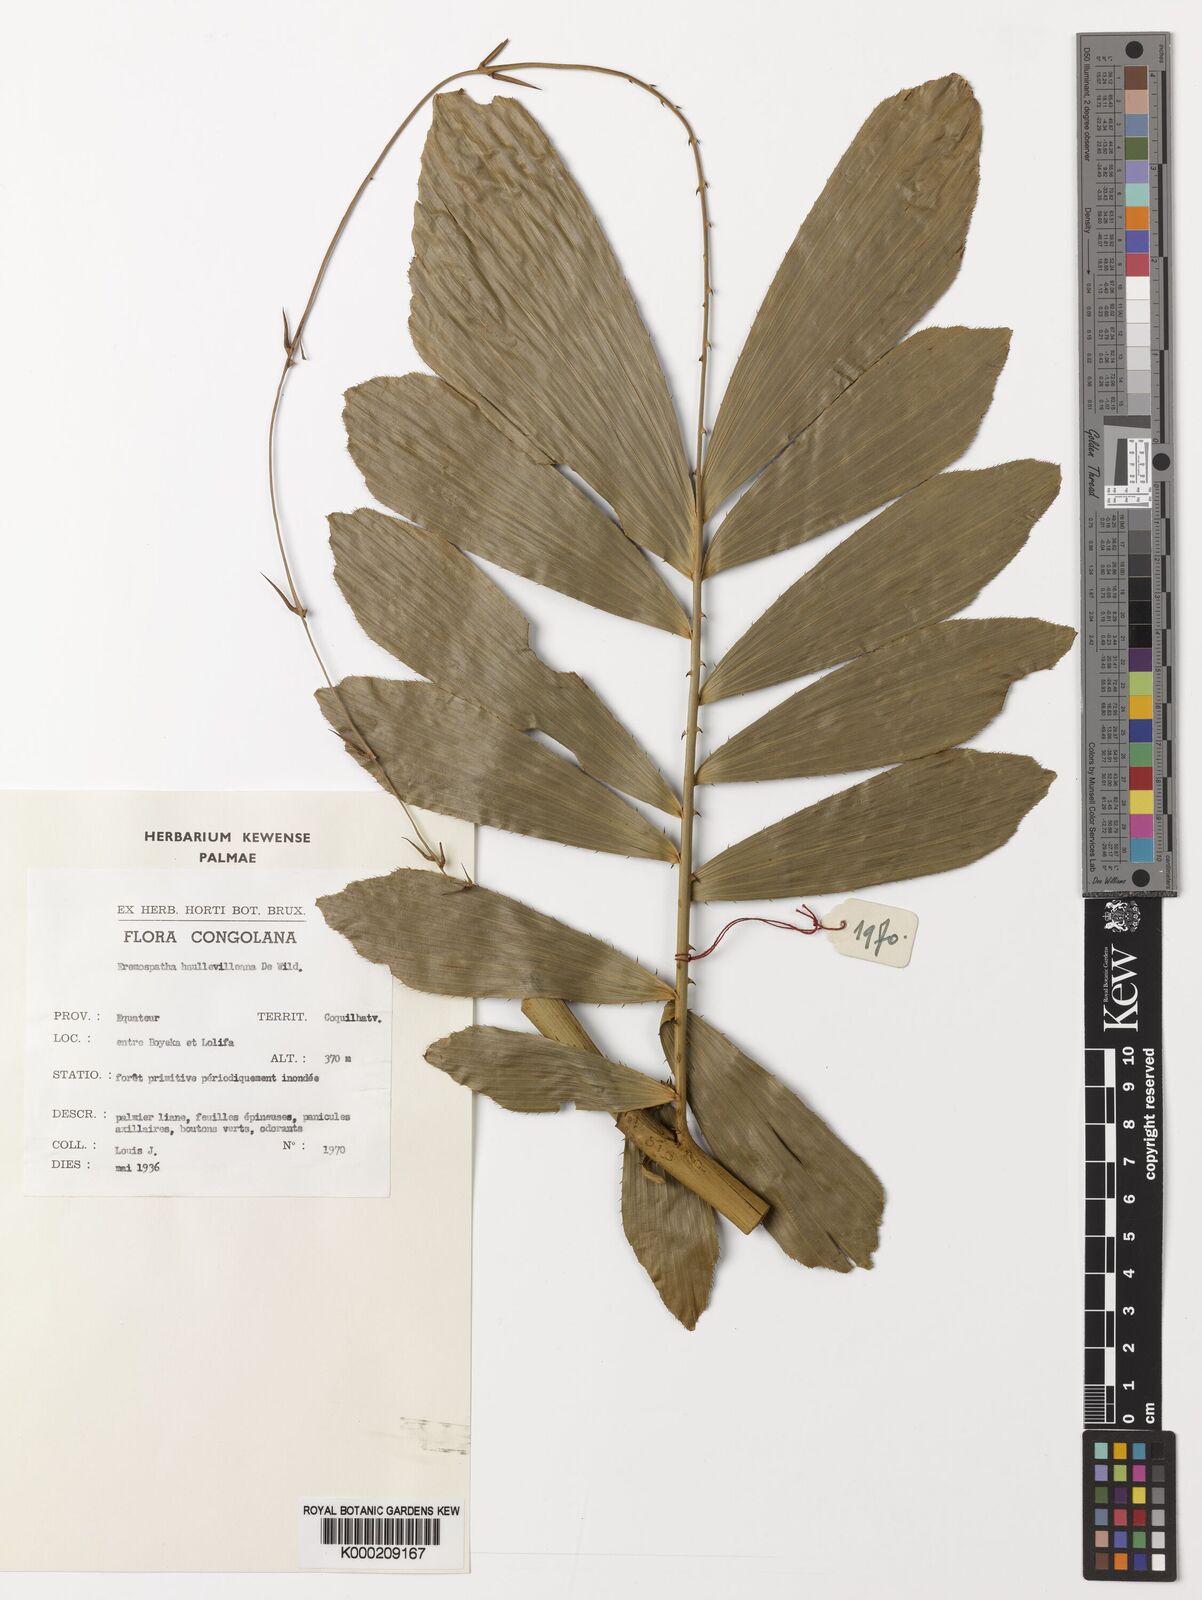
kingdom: Plantae
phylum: Tracheophyta
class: Liliopsida
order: Arecales
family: Arecaceae
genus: Eremospatha
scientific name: Eremospatha haullevilleana
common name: Rattan
